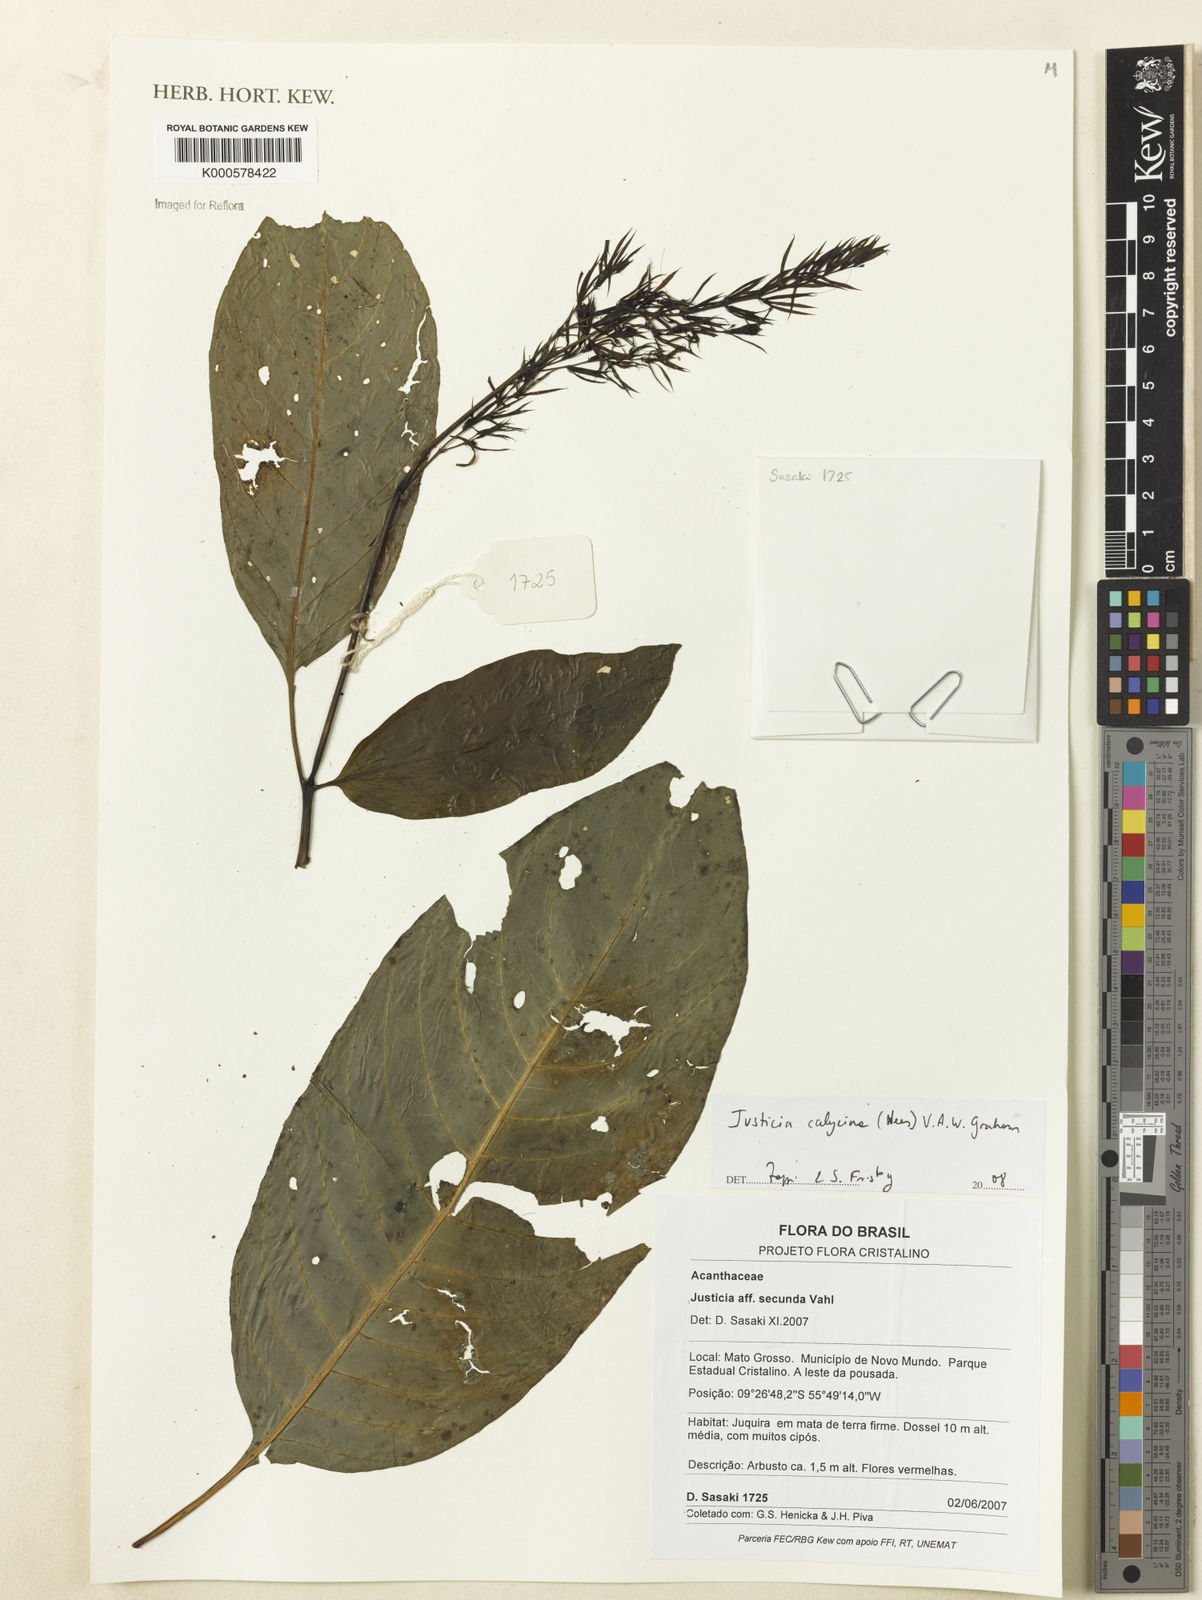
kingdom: Plantae
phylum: Tracheophyta
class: Magnoliopsida
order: Lamiales
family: Acanthaceae
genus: Dianthera
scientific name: Dianthera calycina
